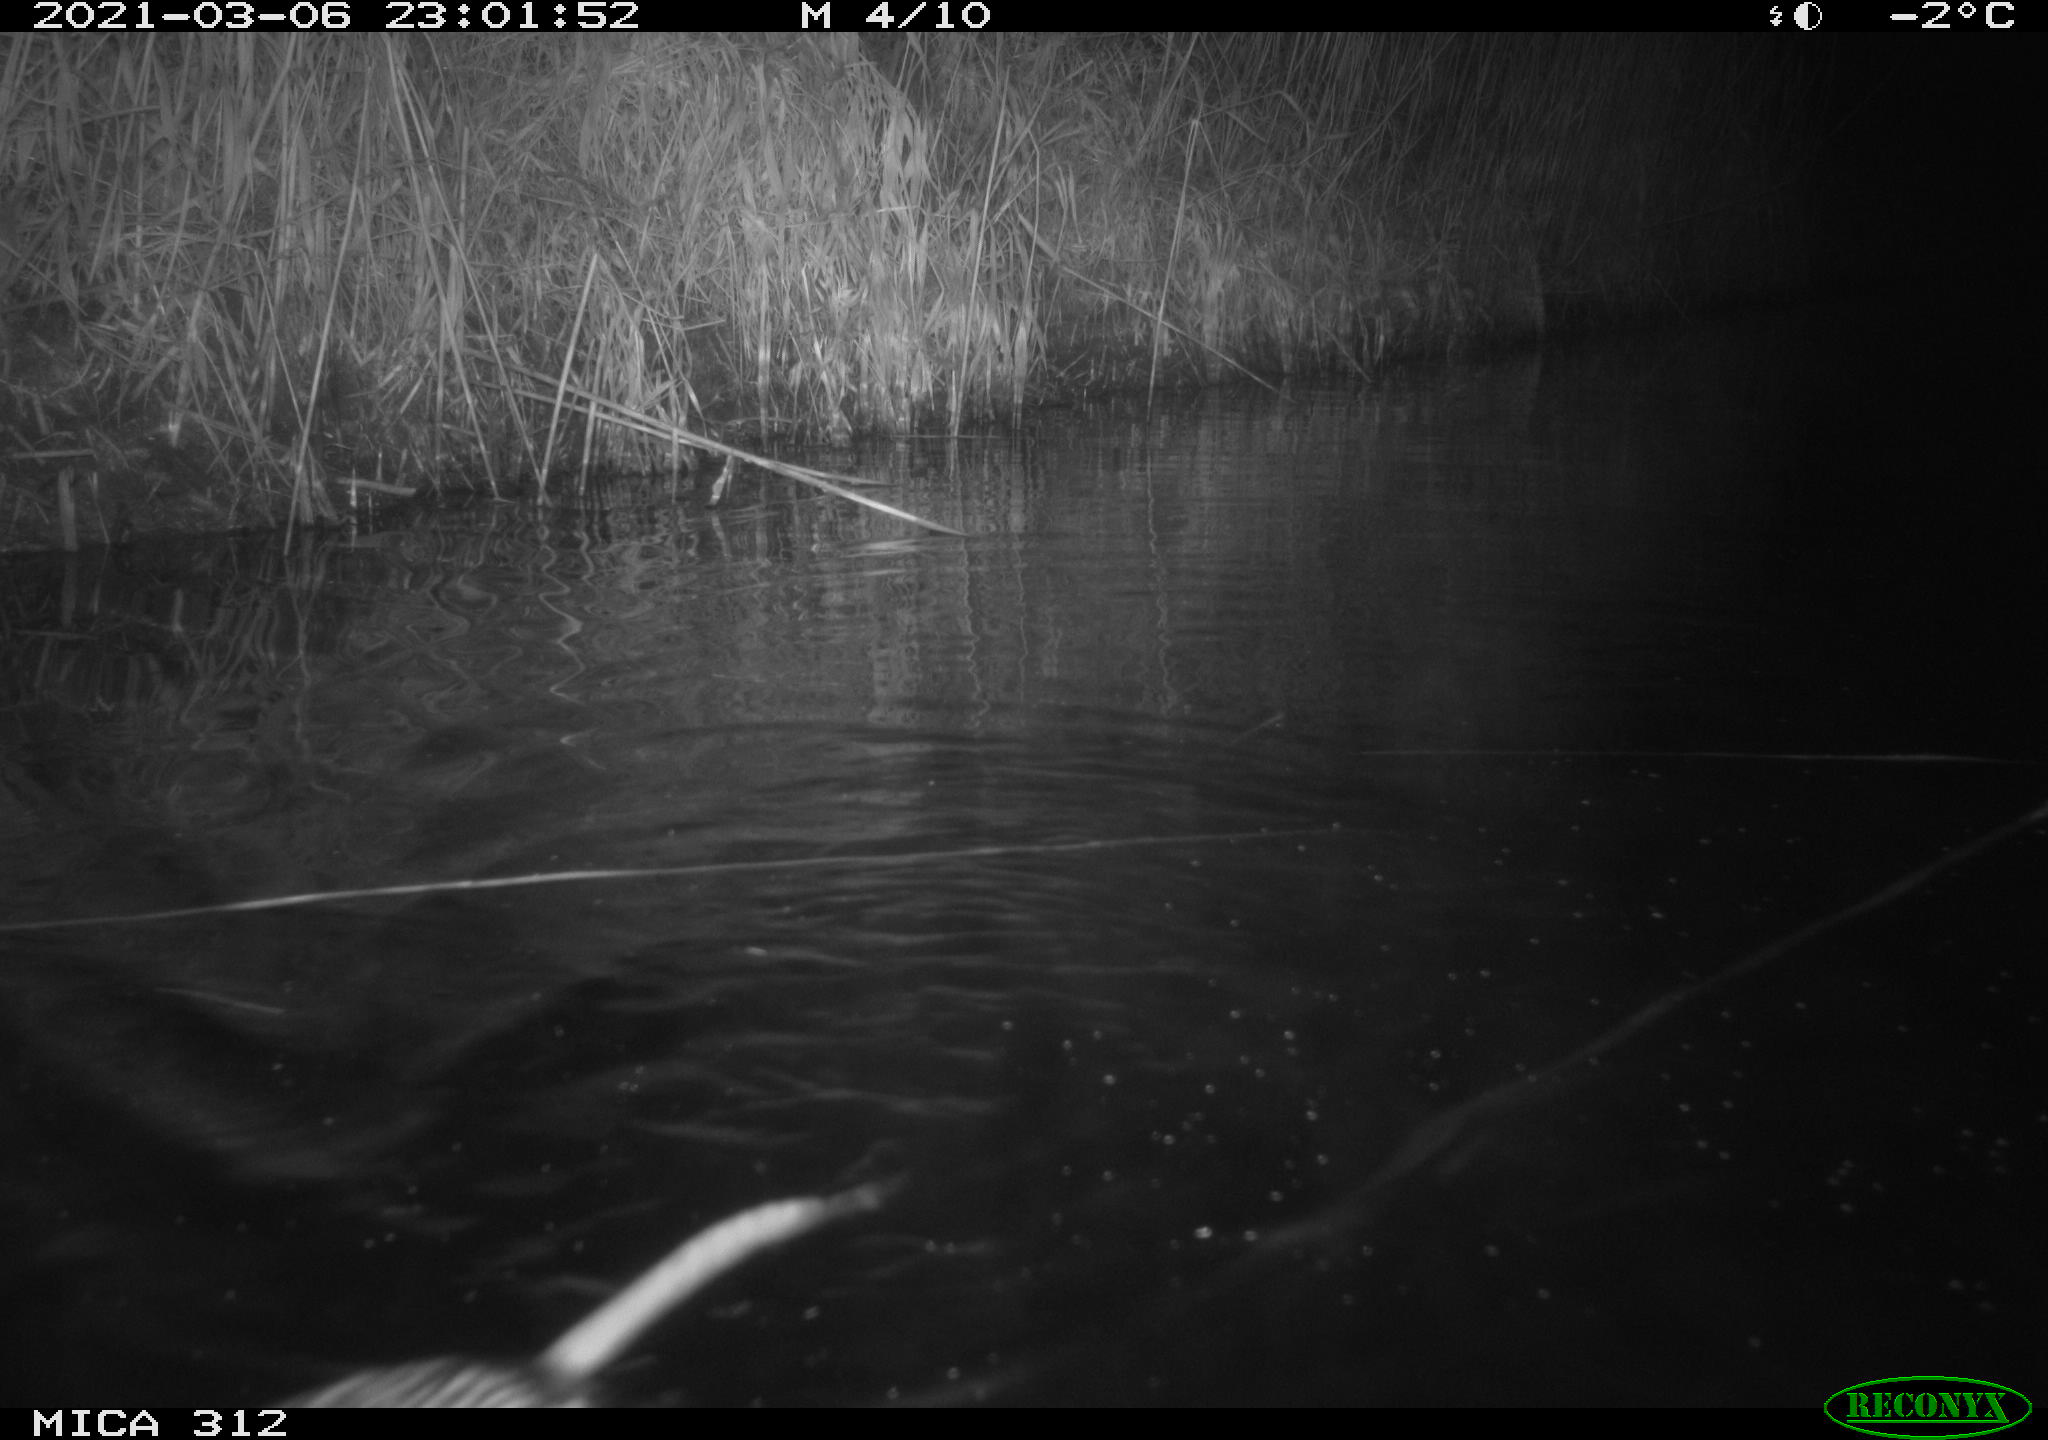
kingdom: Animalia
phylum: Chordata
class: Mammalia
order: Rodentia
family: Cricetidae
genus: Ondatra
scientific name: Ondatra zibethicus
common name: Muskrat
